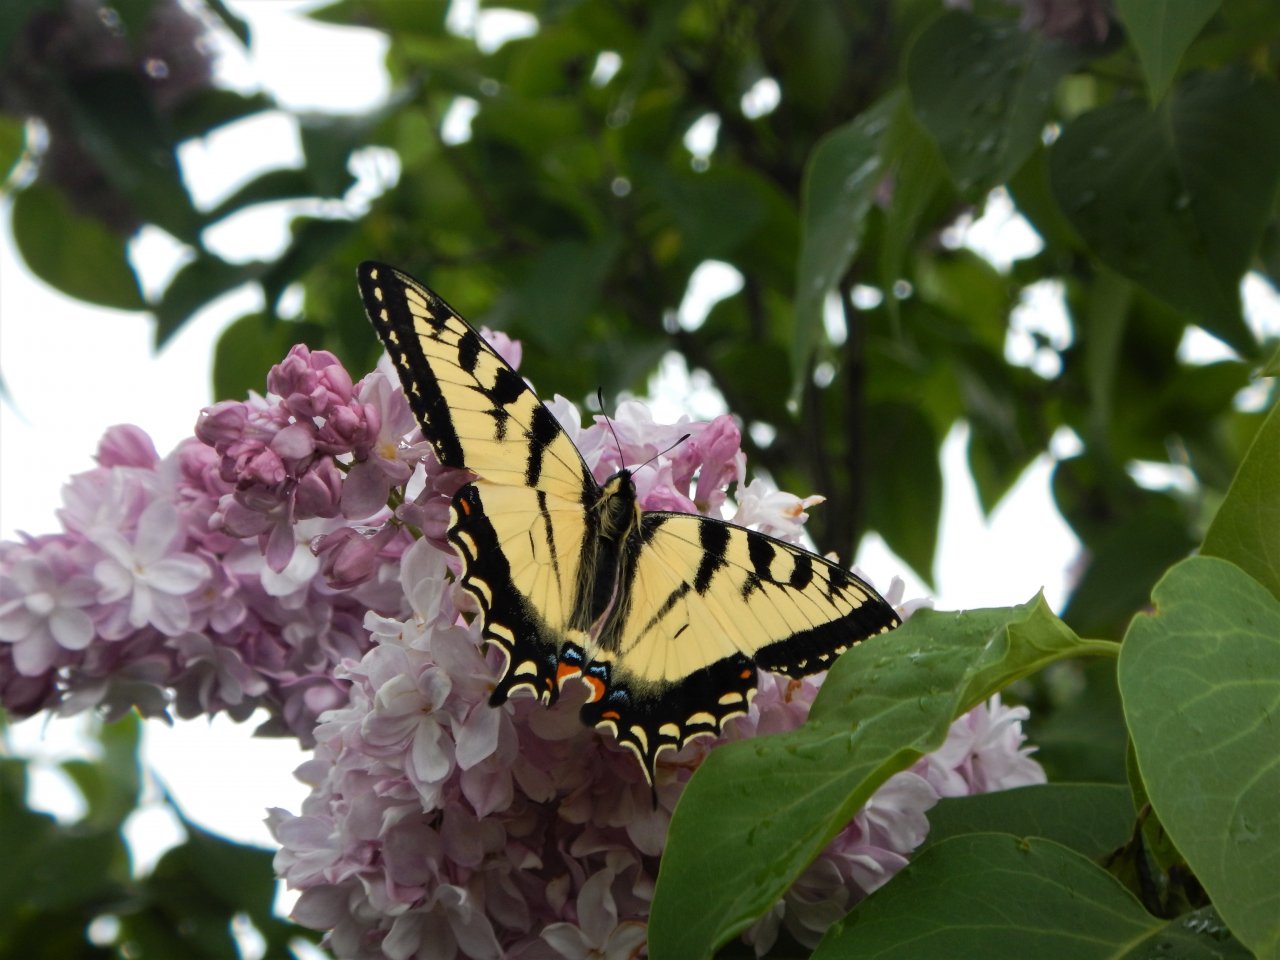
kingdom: Animalia
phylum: Arthropoda
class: Insecta
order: Lepidoptera
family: Papilionidae
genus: Pterourus
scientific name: Pterourus canadensis
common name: Canadian Tiger Swallowtail
